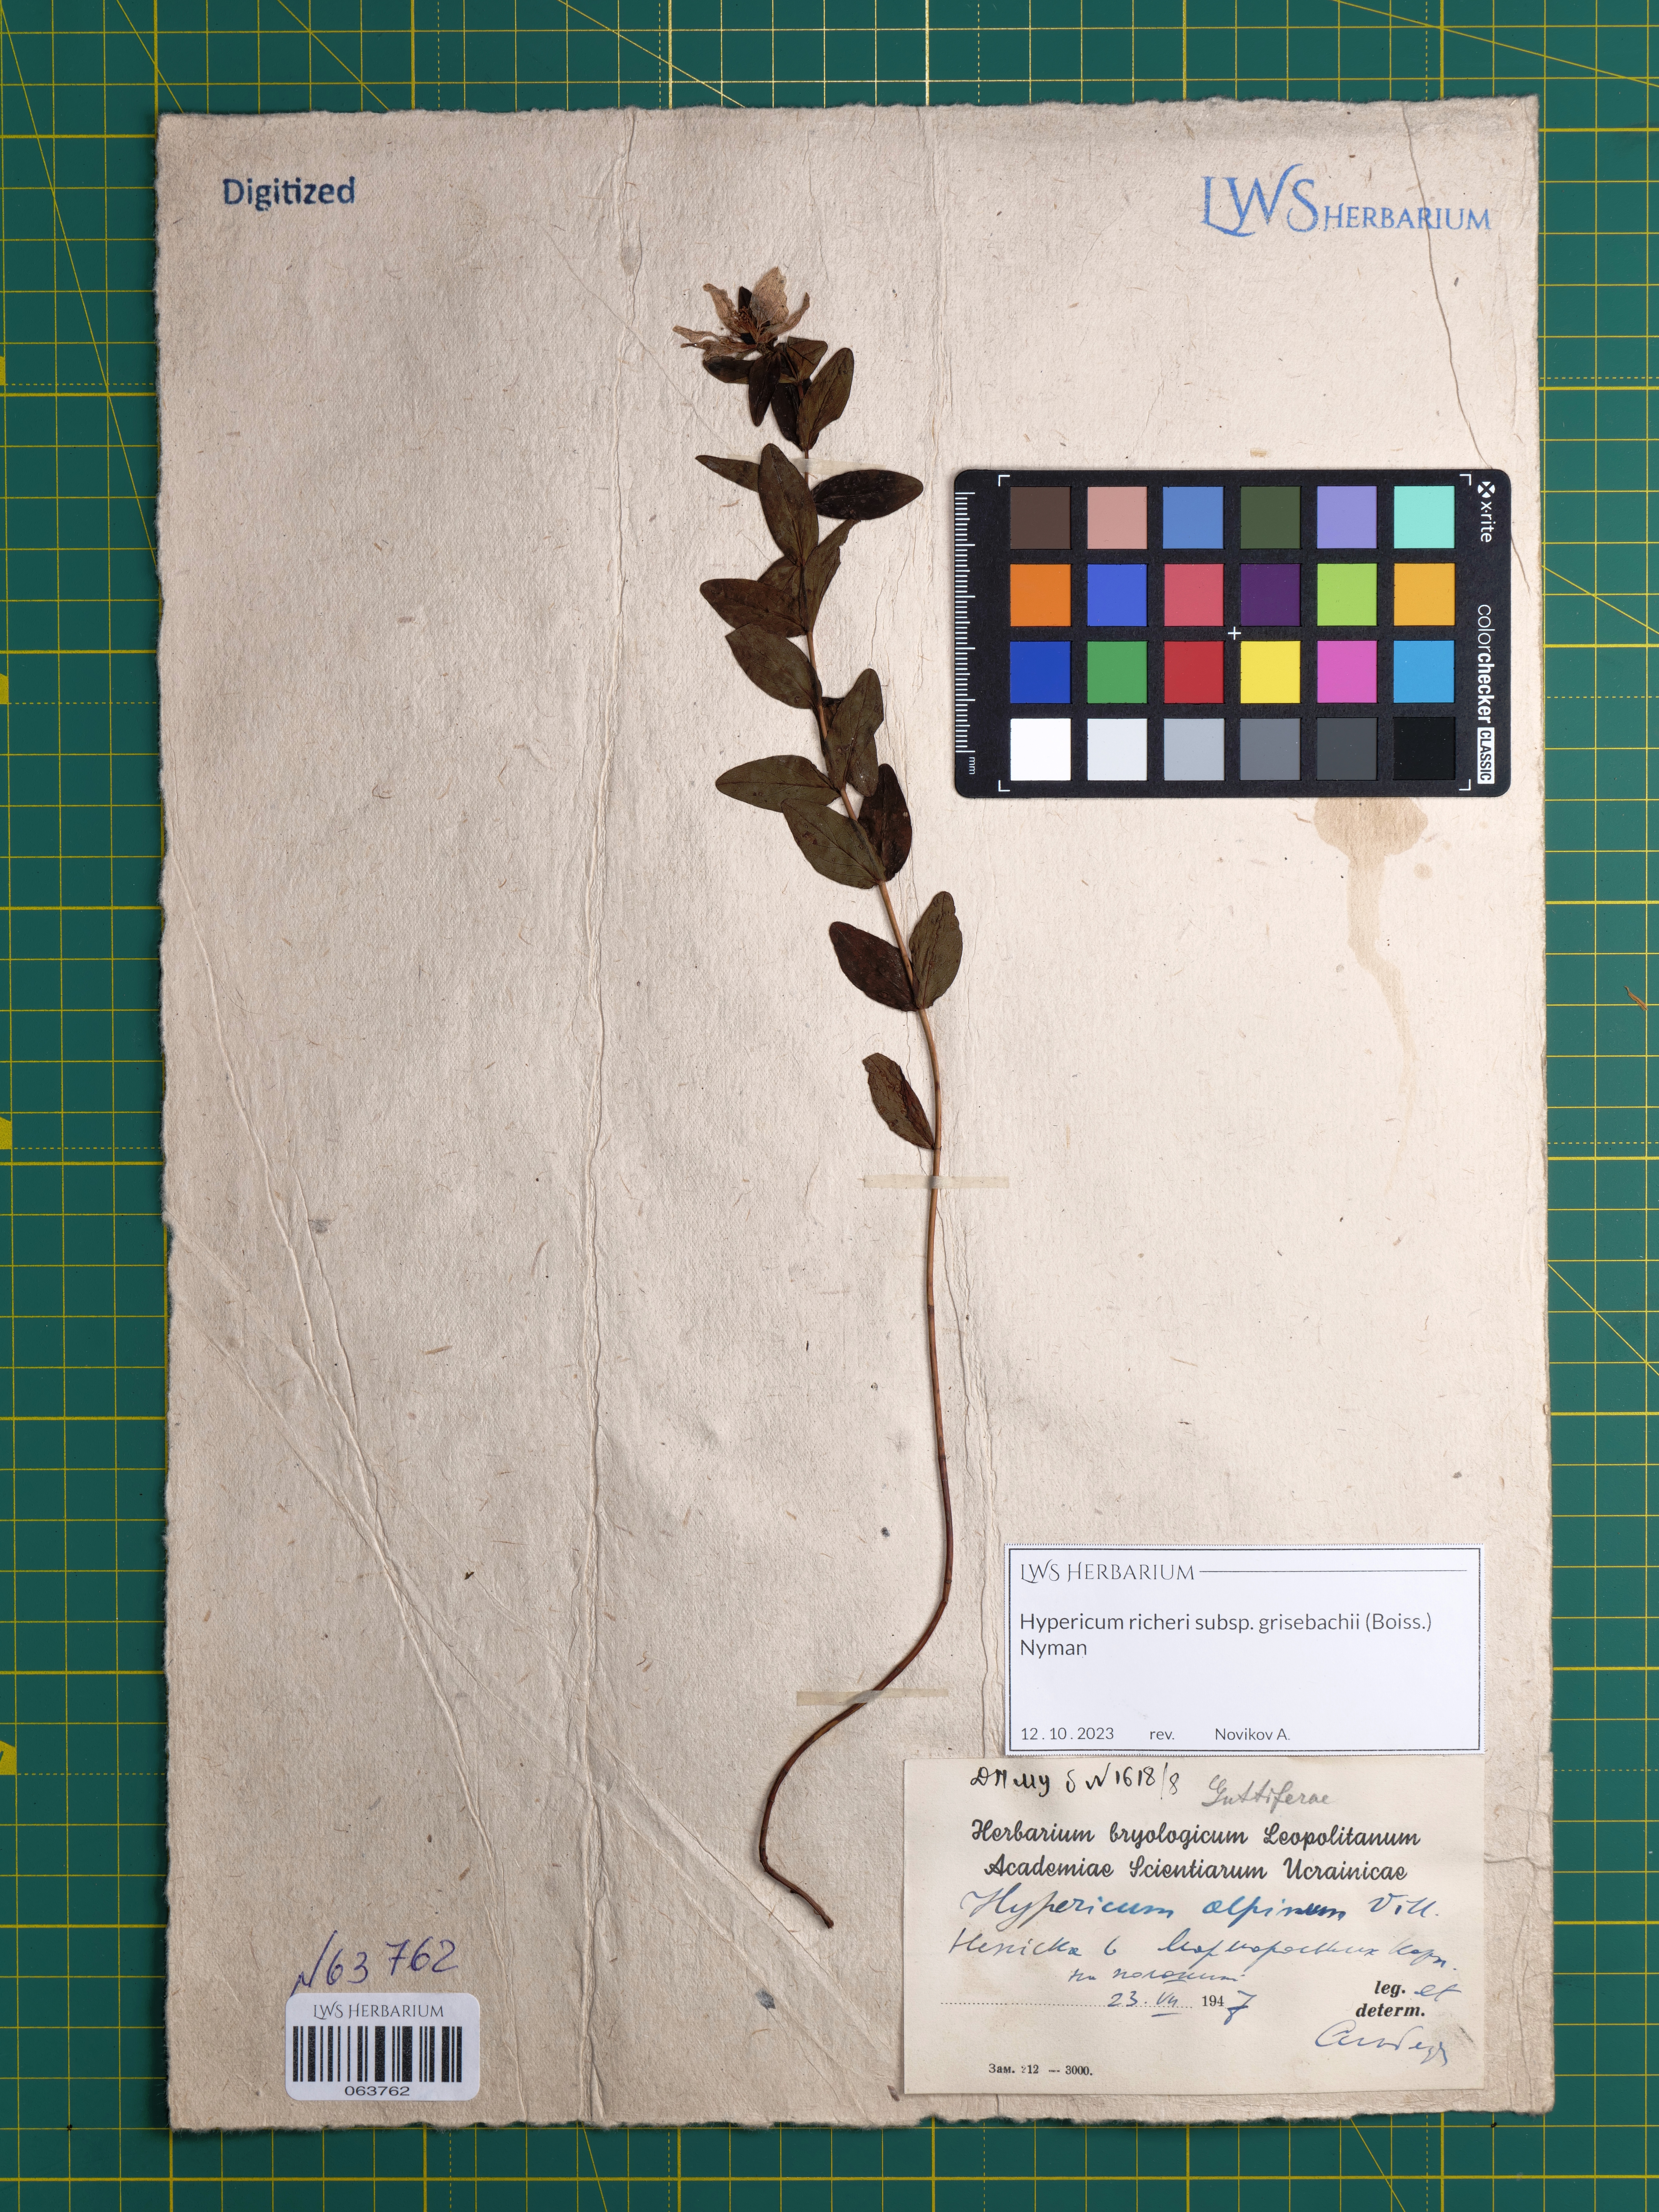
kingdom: Plantae
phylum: Tracheophyta
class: Magnoliopsida
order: Malpighiales
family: Hypericaceae
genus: Hypericum
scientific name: Hypericum richeri
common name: Alpine st john's-wort
